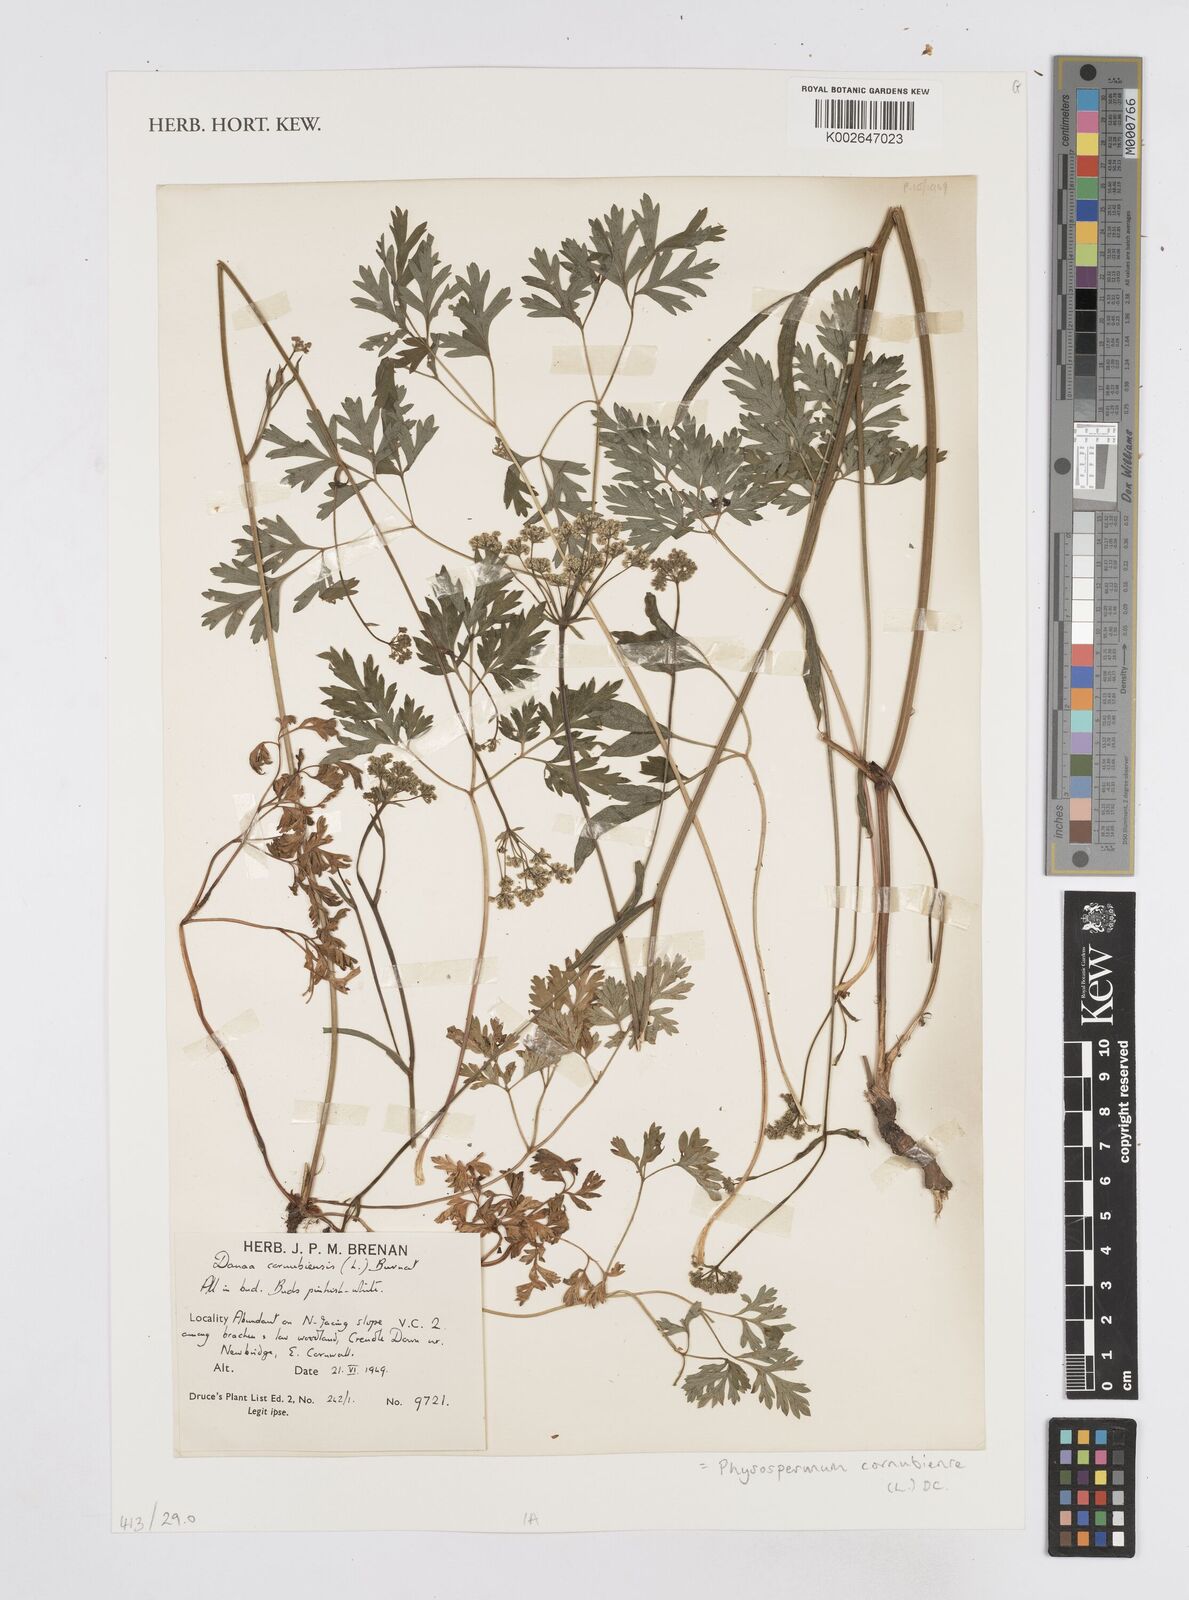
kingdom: Plantae
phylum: Tracheophyta
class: Magnoliopsida
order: Apiales
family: Apiaceae
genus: Physospermum
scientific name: Physospermum cornubiense
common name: Bladderseed
